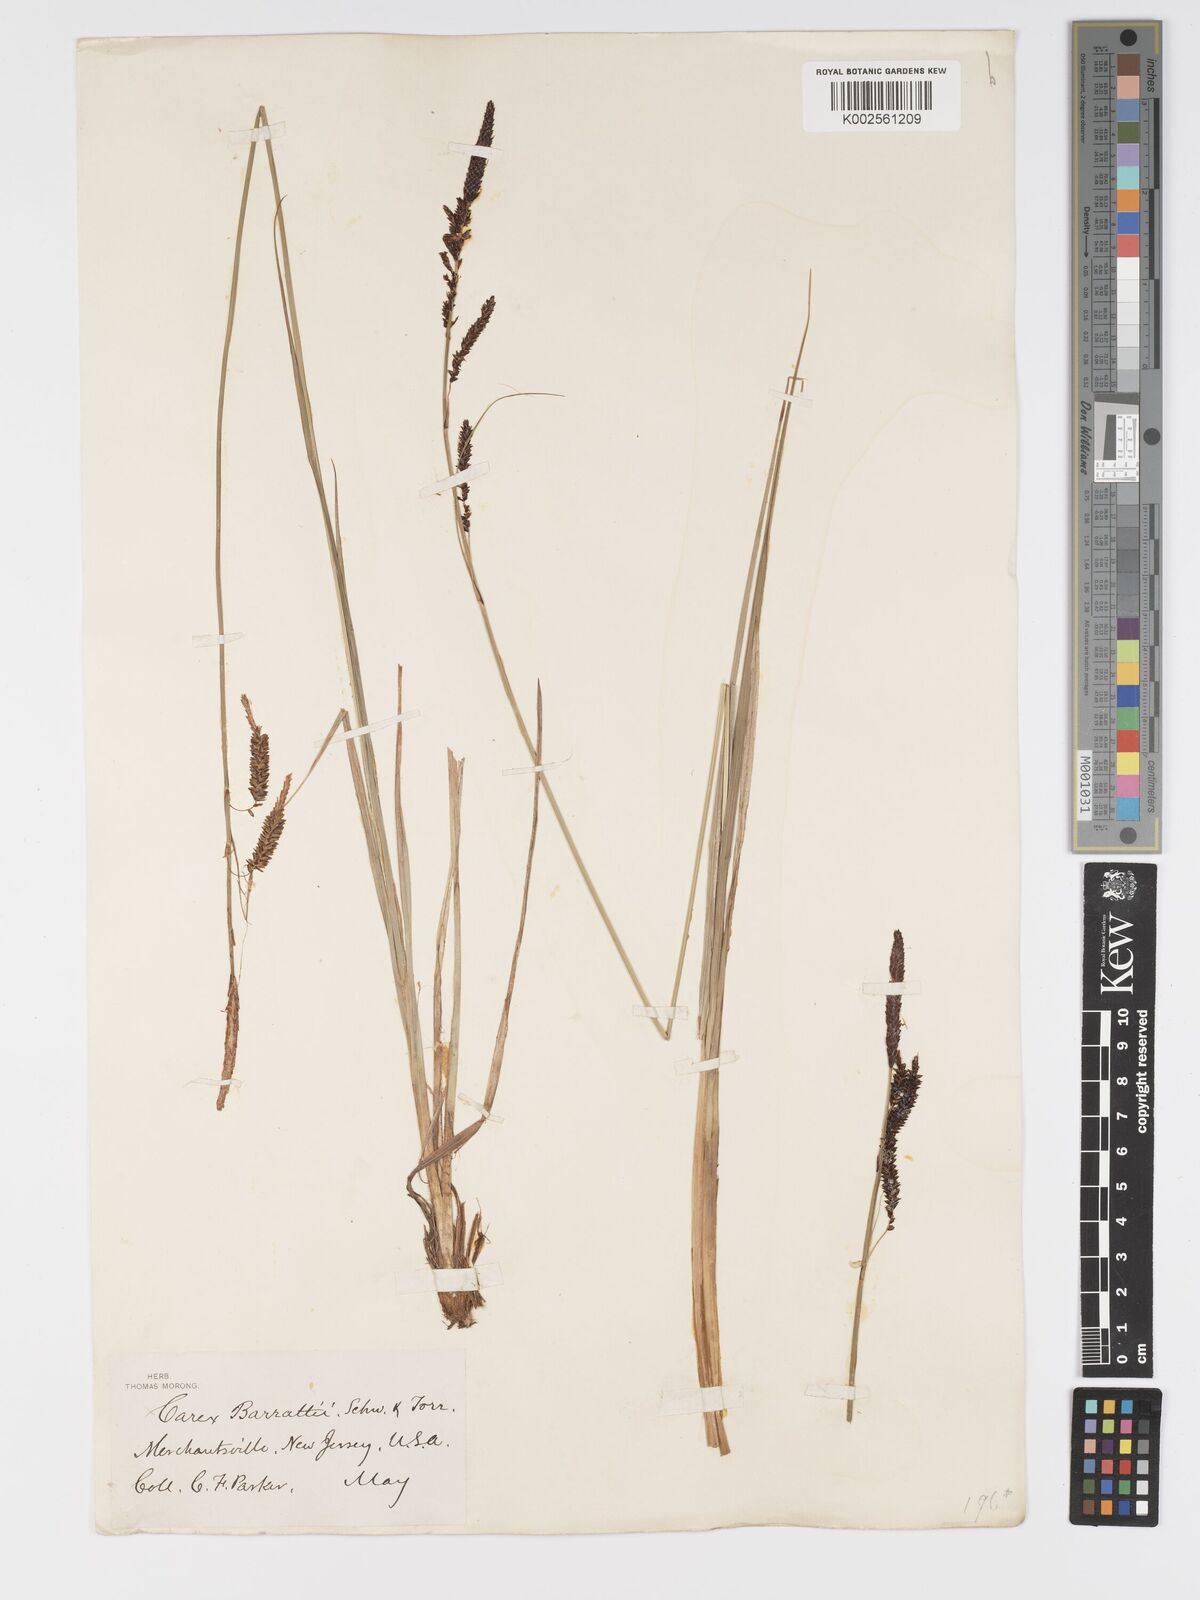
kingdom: Plantae
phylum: Tracheophyta
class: Liliopsida
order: Poales
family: Cyperaceae
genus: Carex
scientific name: Carex barrattii
